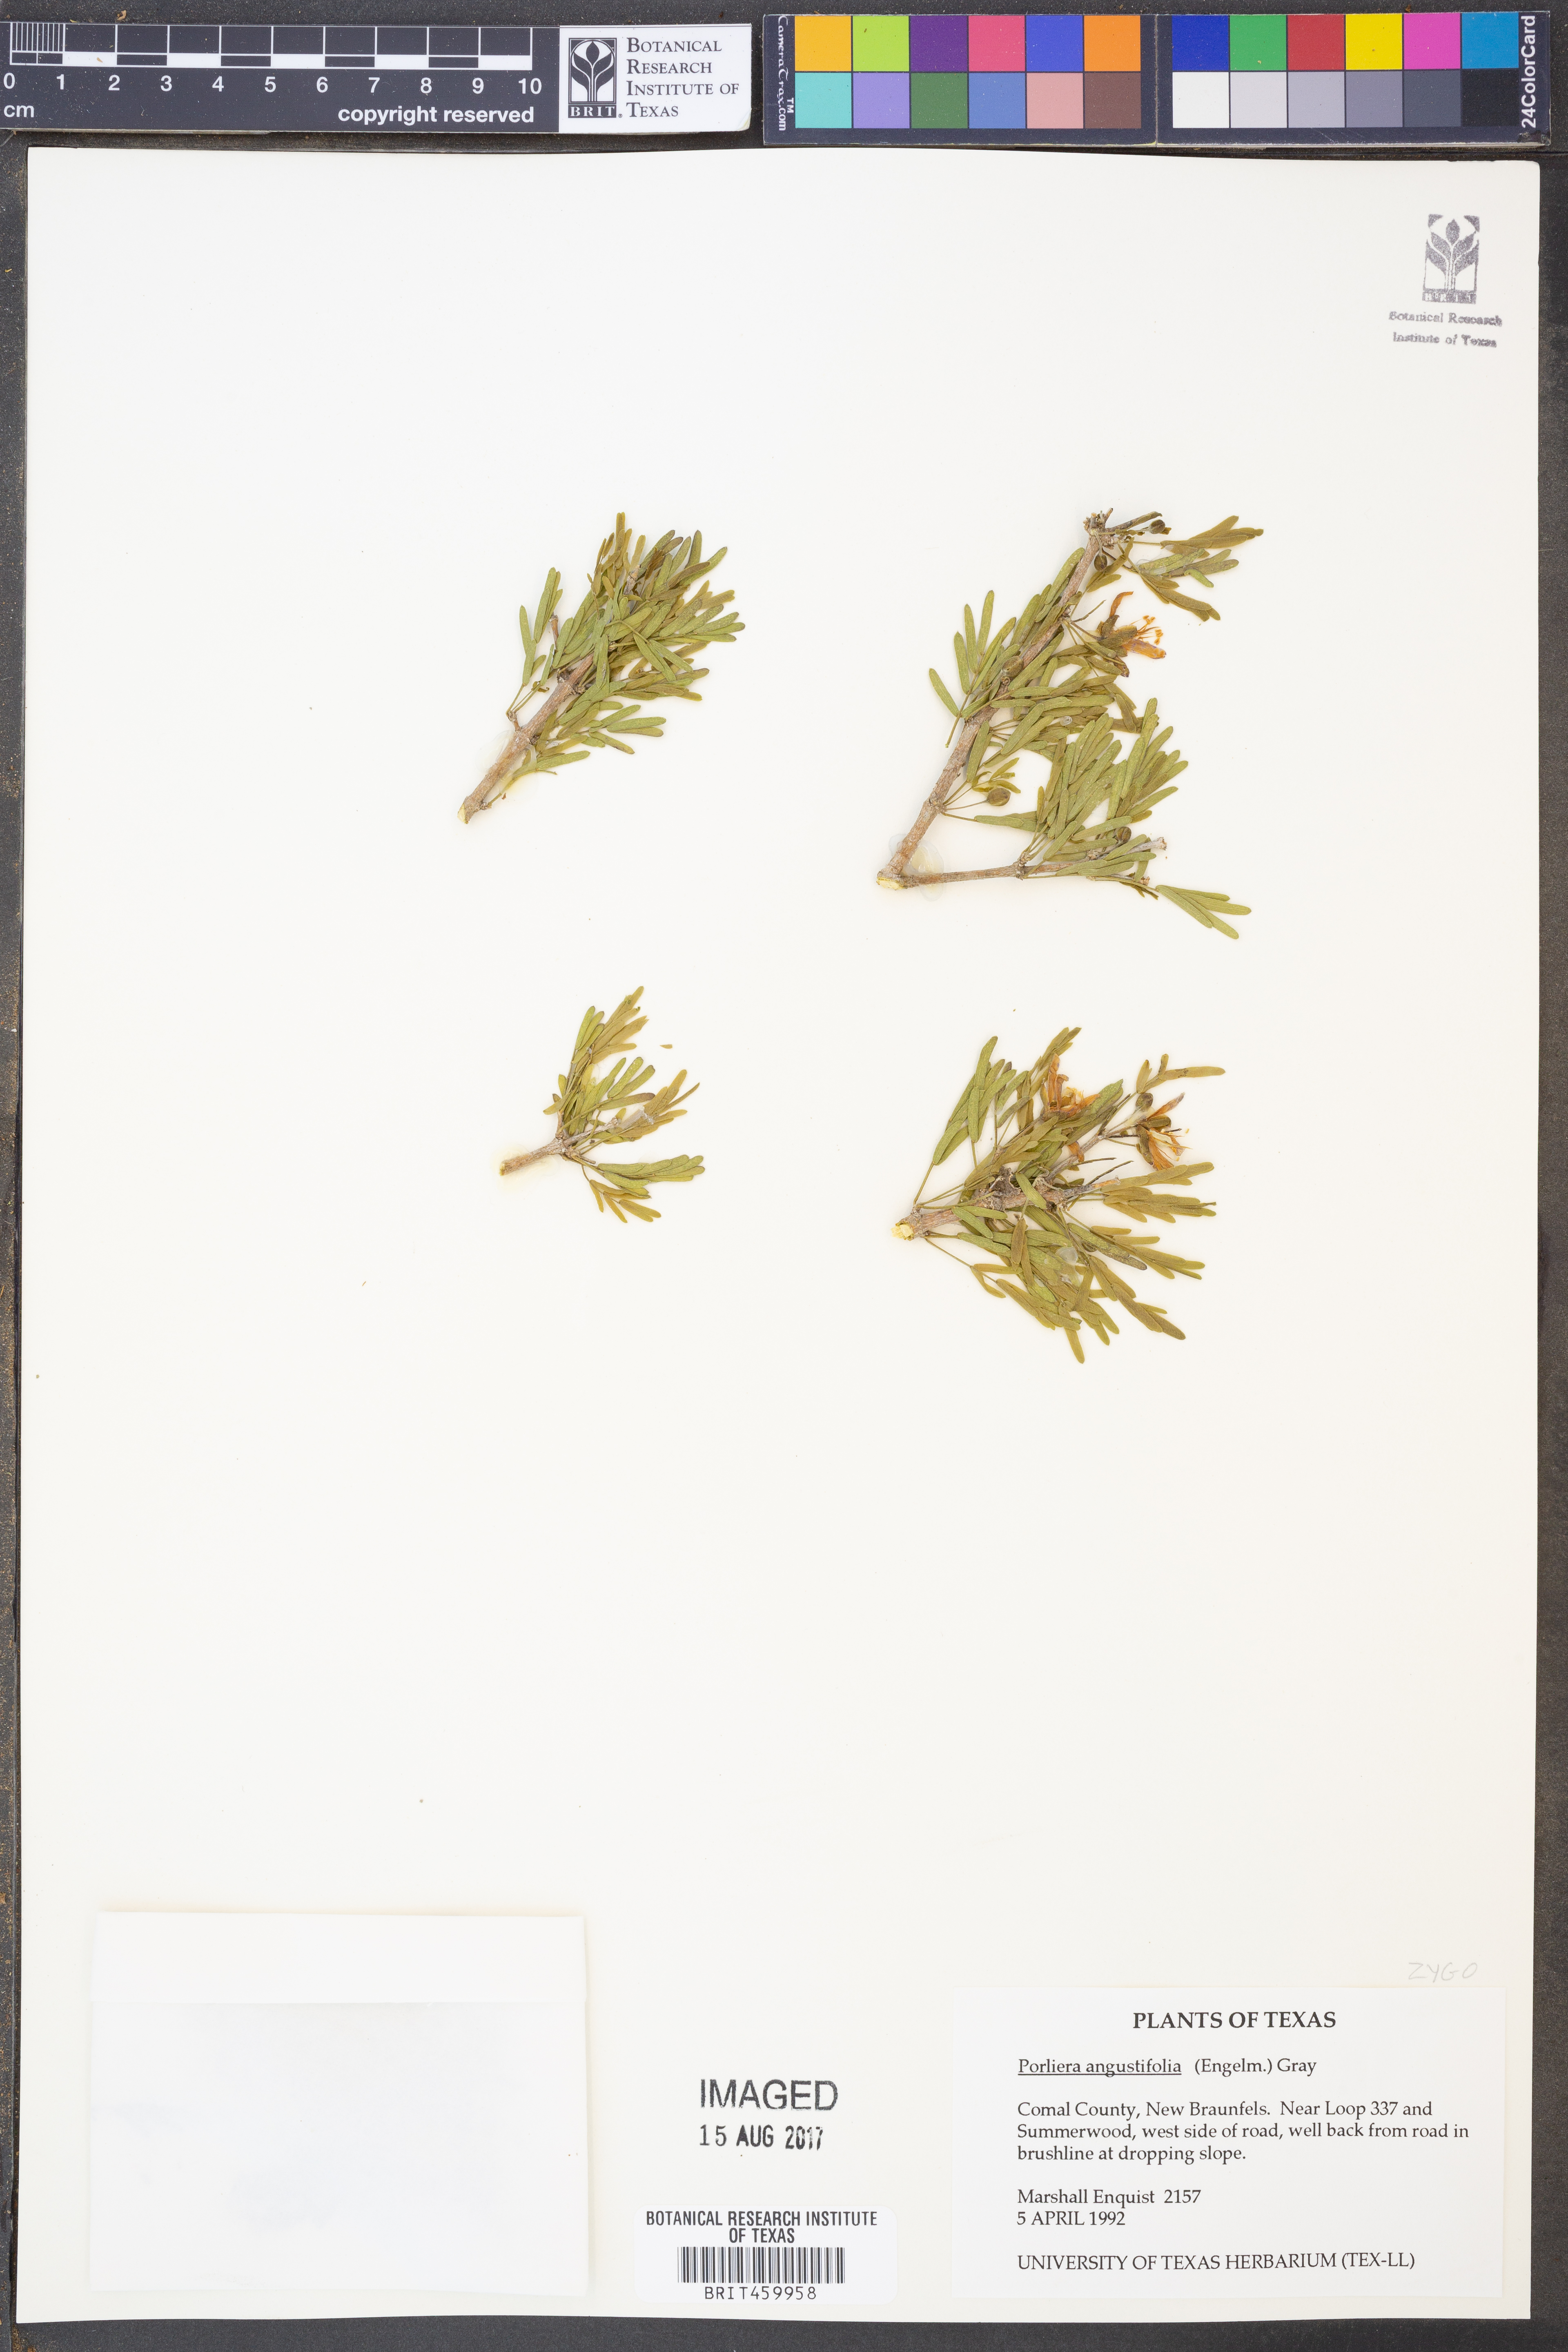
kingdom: Plantae
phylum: Tracheophyta
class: Magnoliopsida
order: Zygophyllales
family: Zygophyllaceae
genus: Porlieria
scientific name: Porlieria angustifolia
